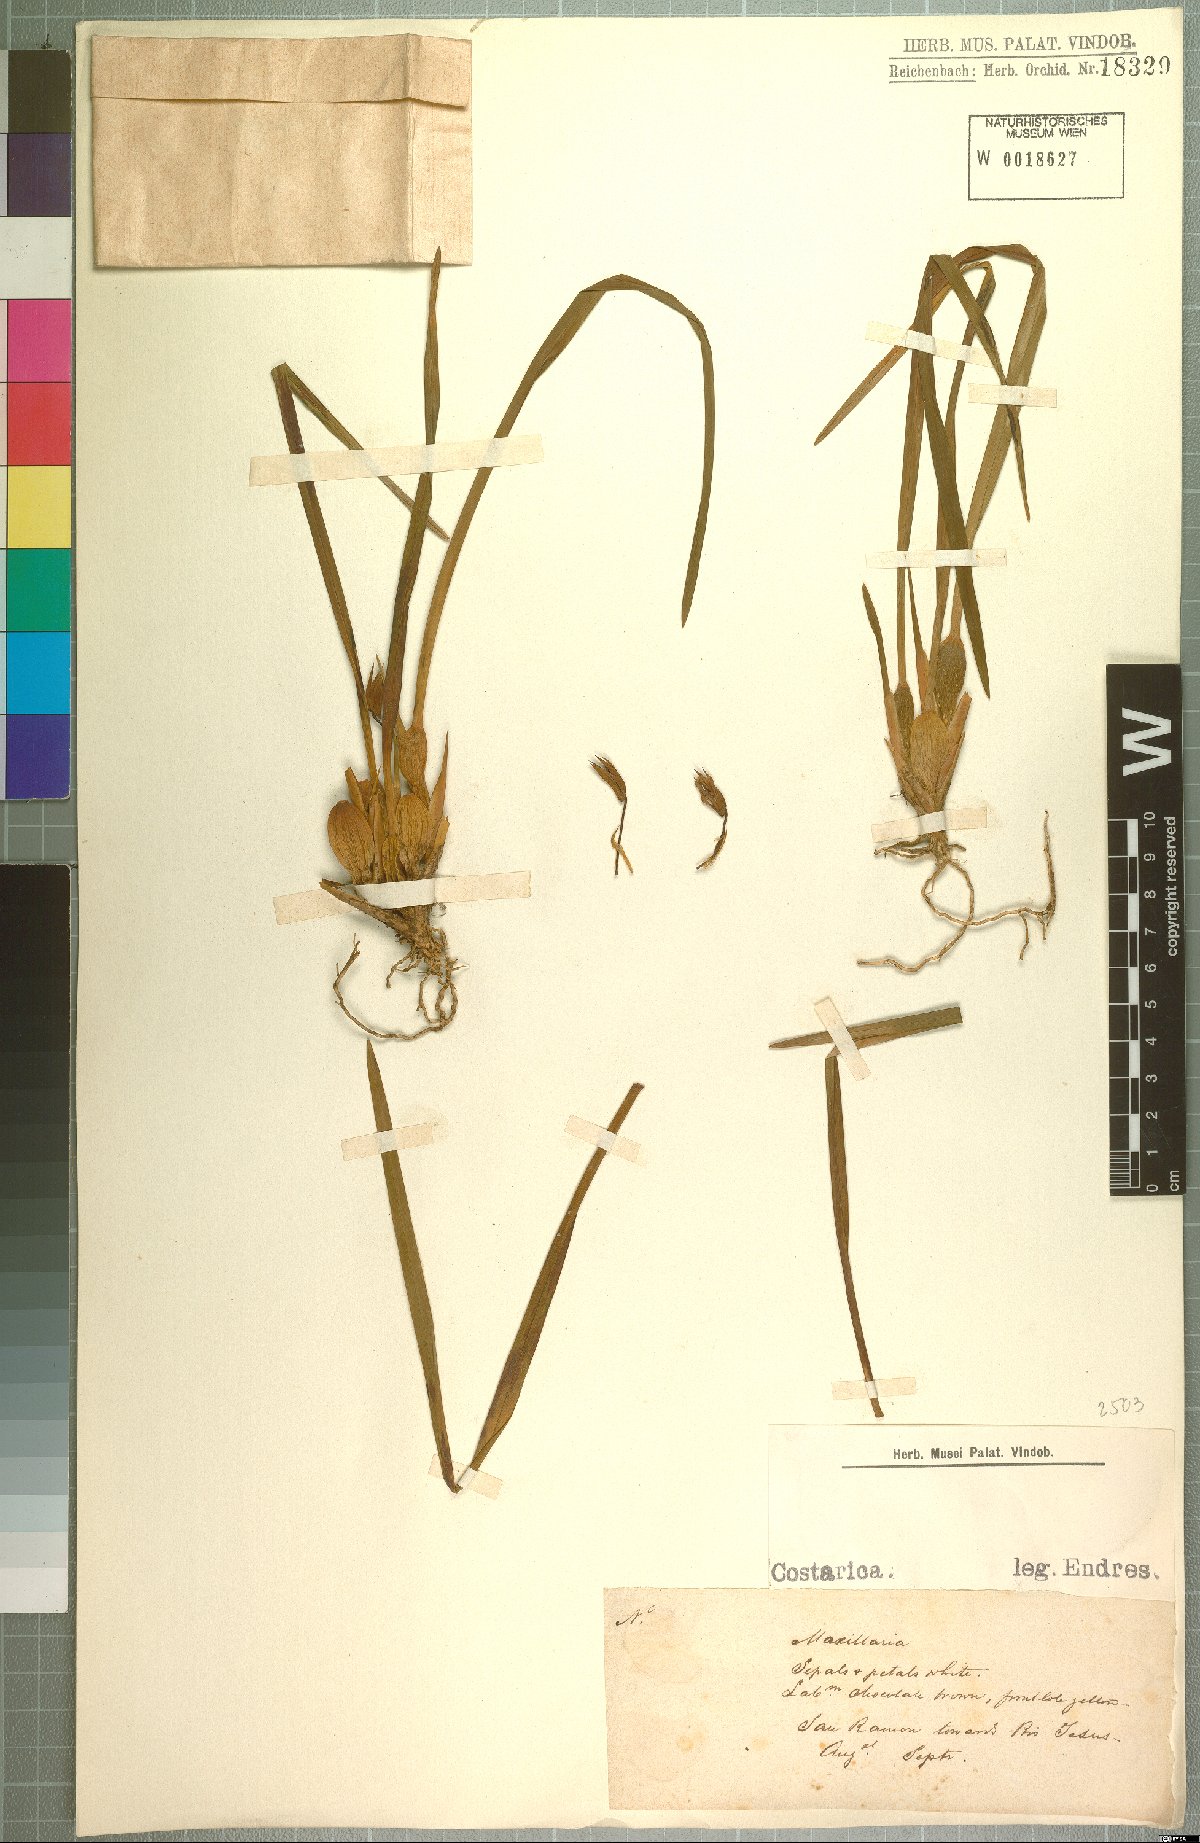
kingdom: Plantae
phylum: Tracheophyta
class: Liliopsida
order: Asparagales
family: Orchidaceae
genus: Maxillaria
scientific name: Maxillaria
